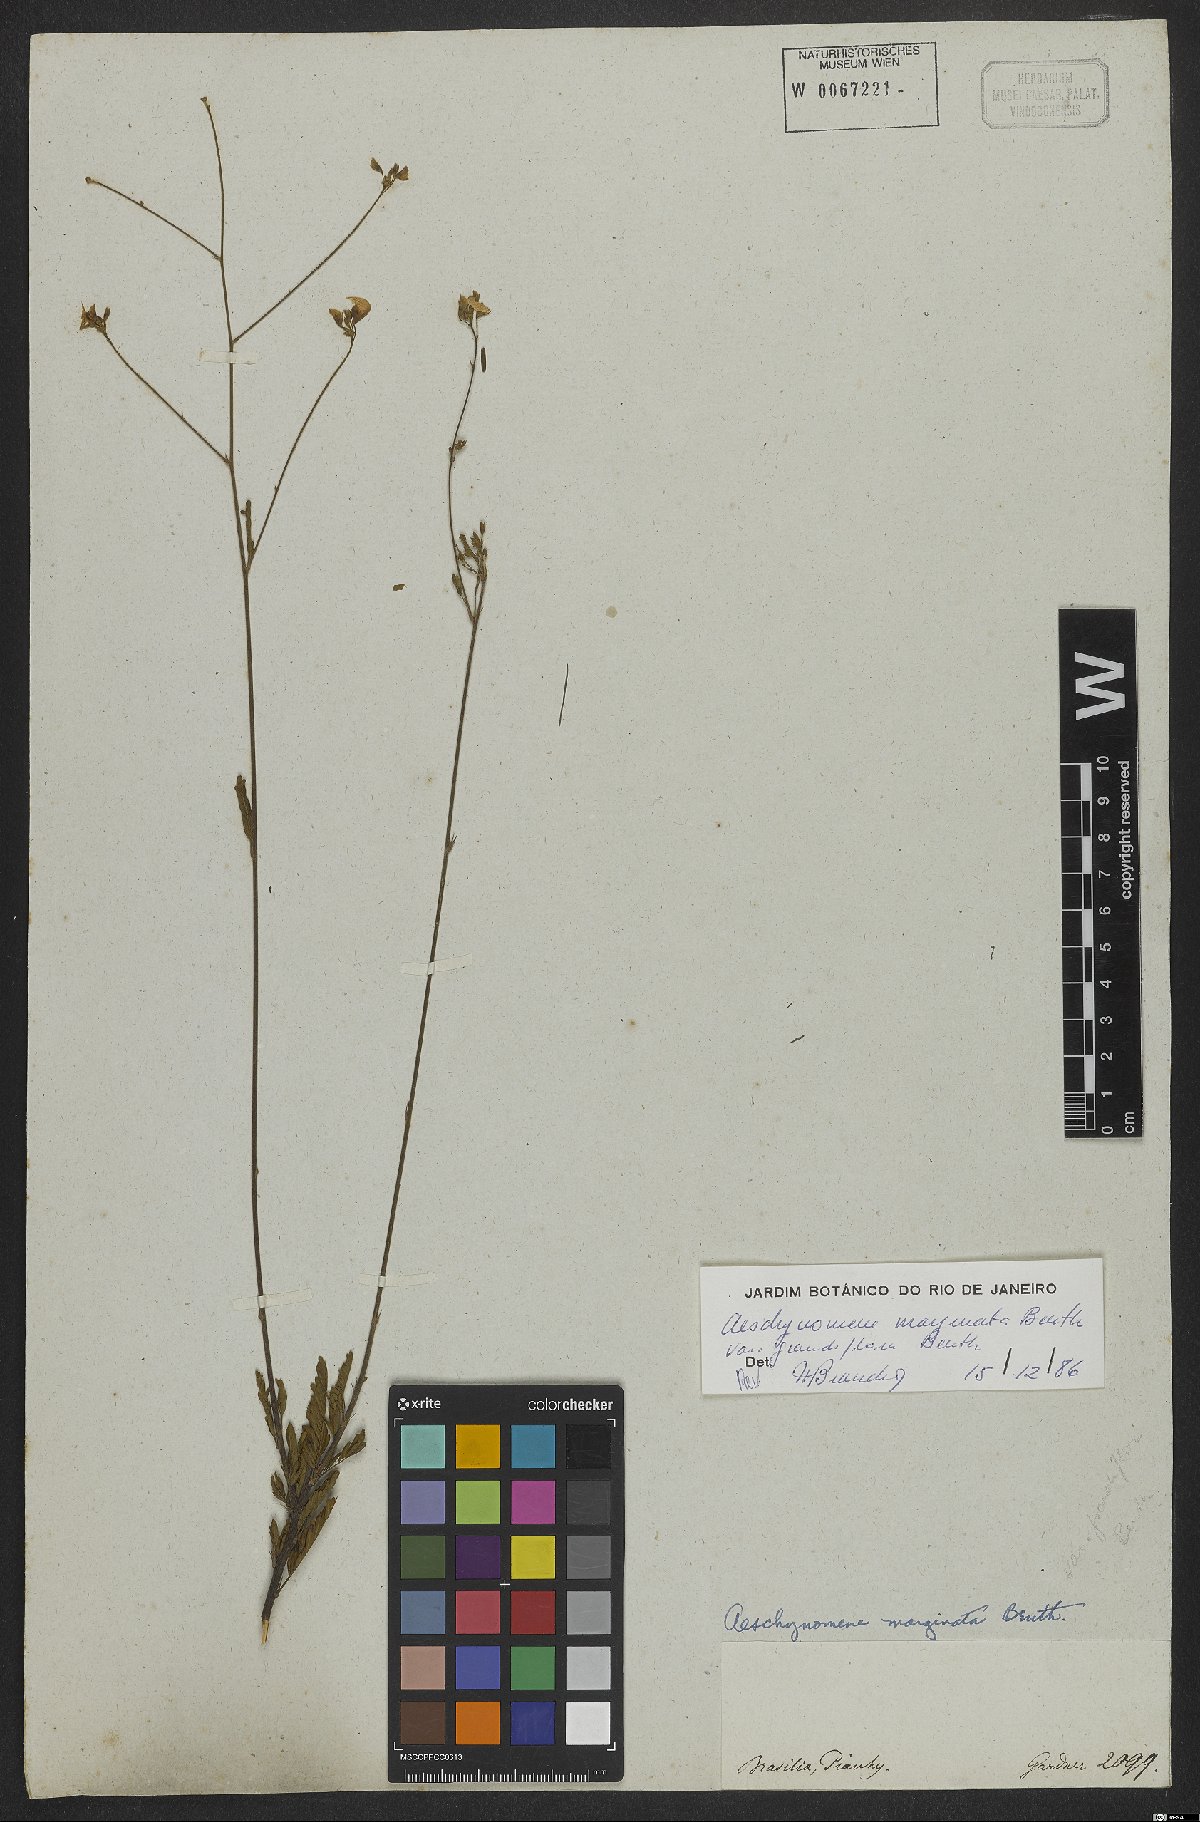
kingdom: Plantae
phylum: Tracheophyta
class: Magnoliopsida
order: Fabales
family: Fabaceae
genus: Ctenodon
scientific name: Ctenodon marginatus
